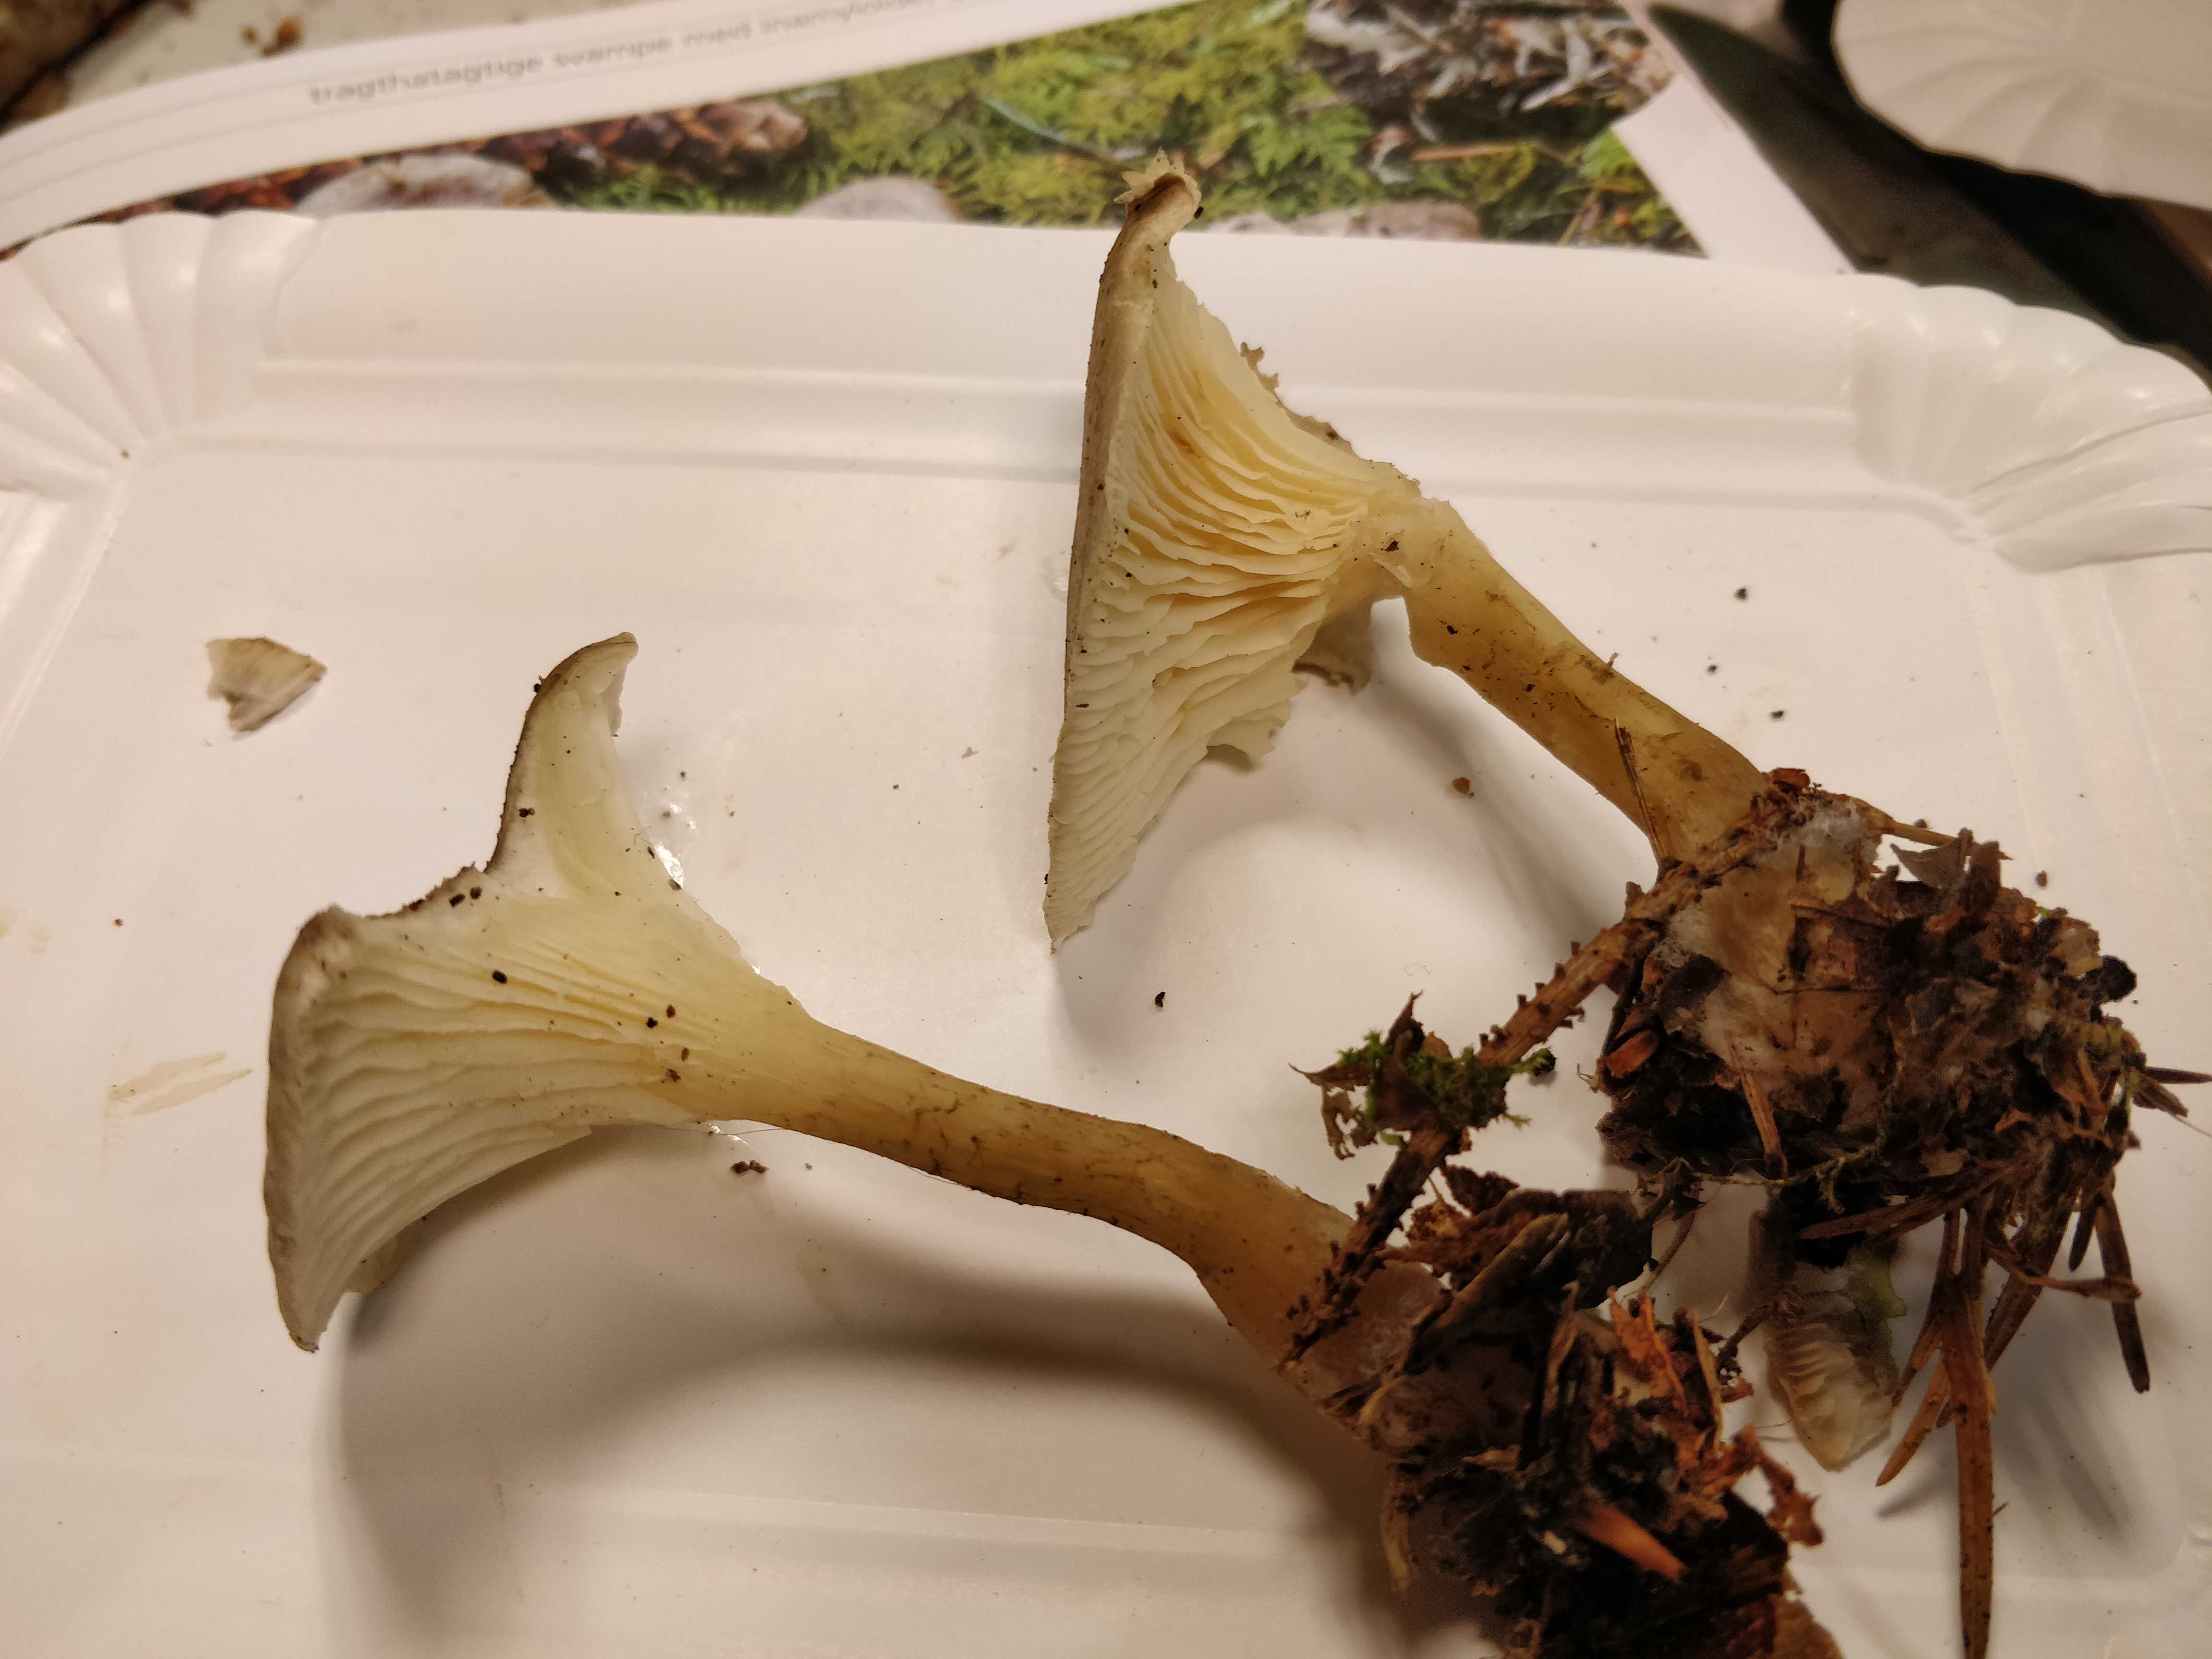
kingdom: Fungi
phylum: Basidiomycota
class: Agaricomycetes
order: Agaricales
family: Hygrophoraceae
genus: Ampulloclitocybe
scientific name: Ampulloclitocybe clavipes
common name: køllefod
